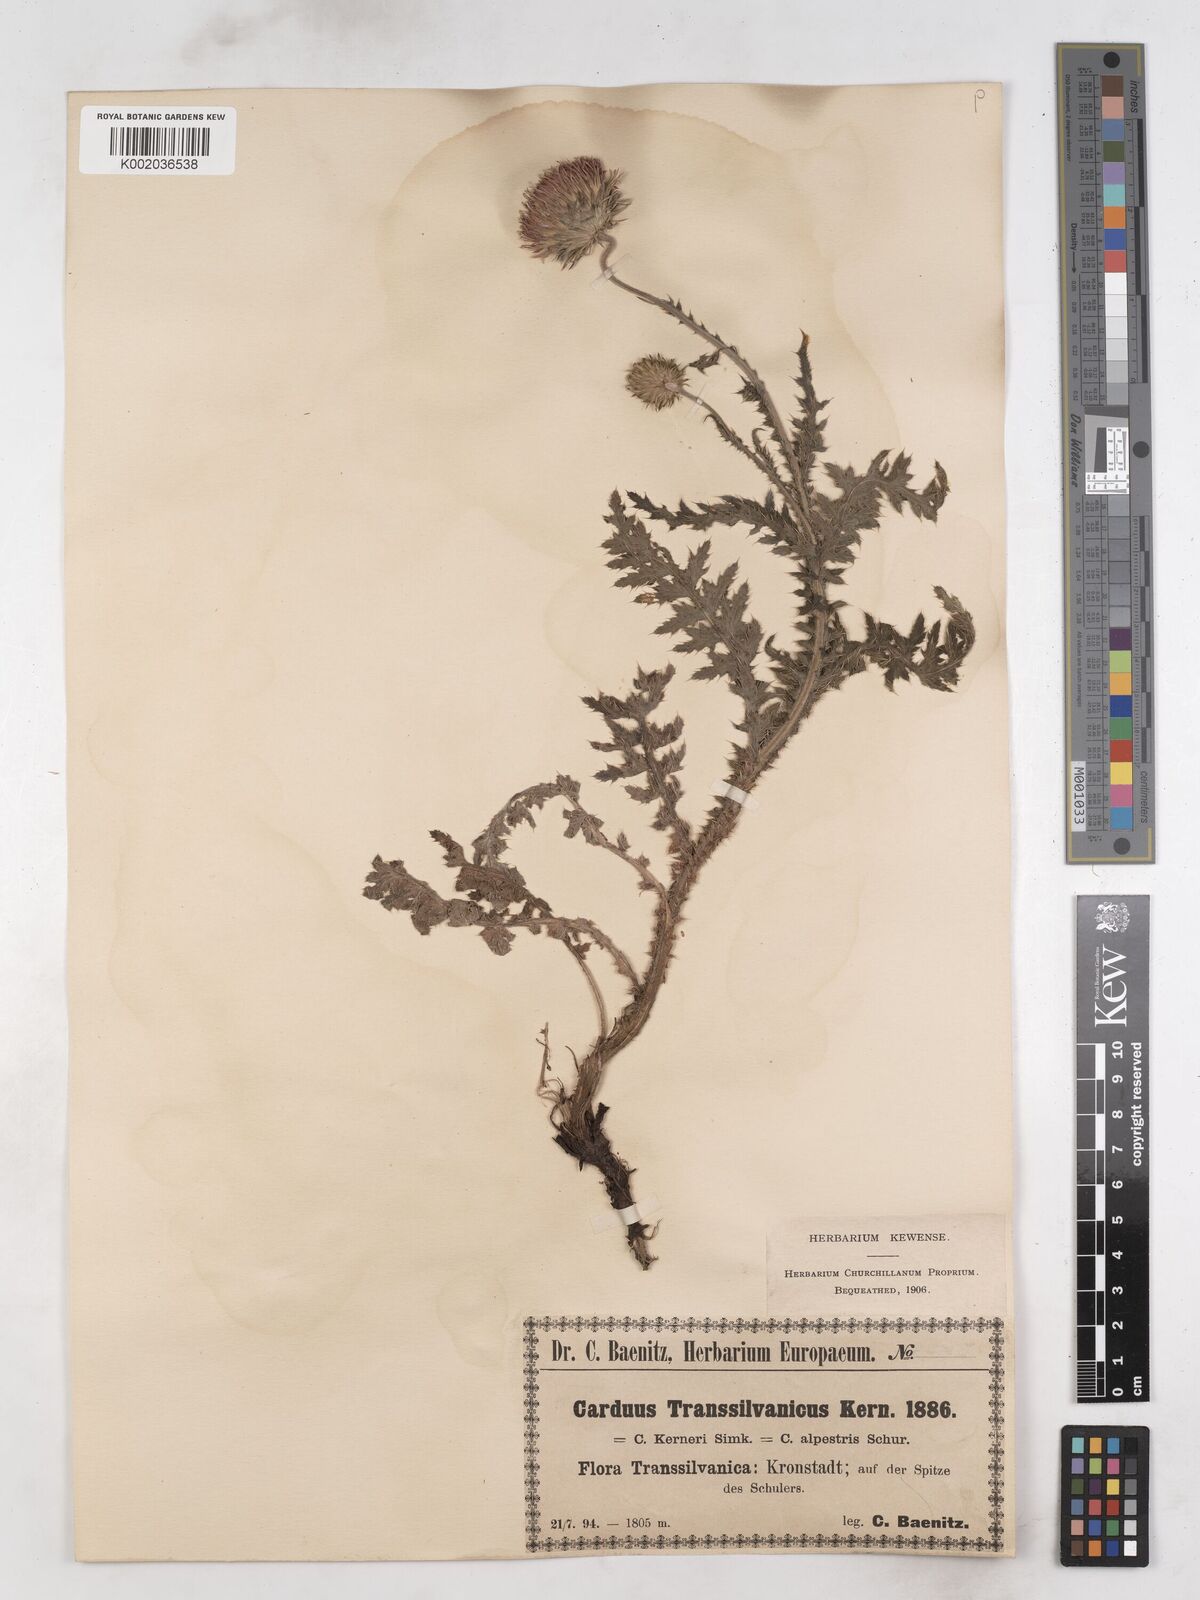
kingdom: Plantae
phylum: Tracheophyta
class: Magnoliopsida
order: Asterales
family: Asteraceae
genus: Carduus
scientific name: Carduus kerneri
